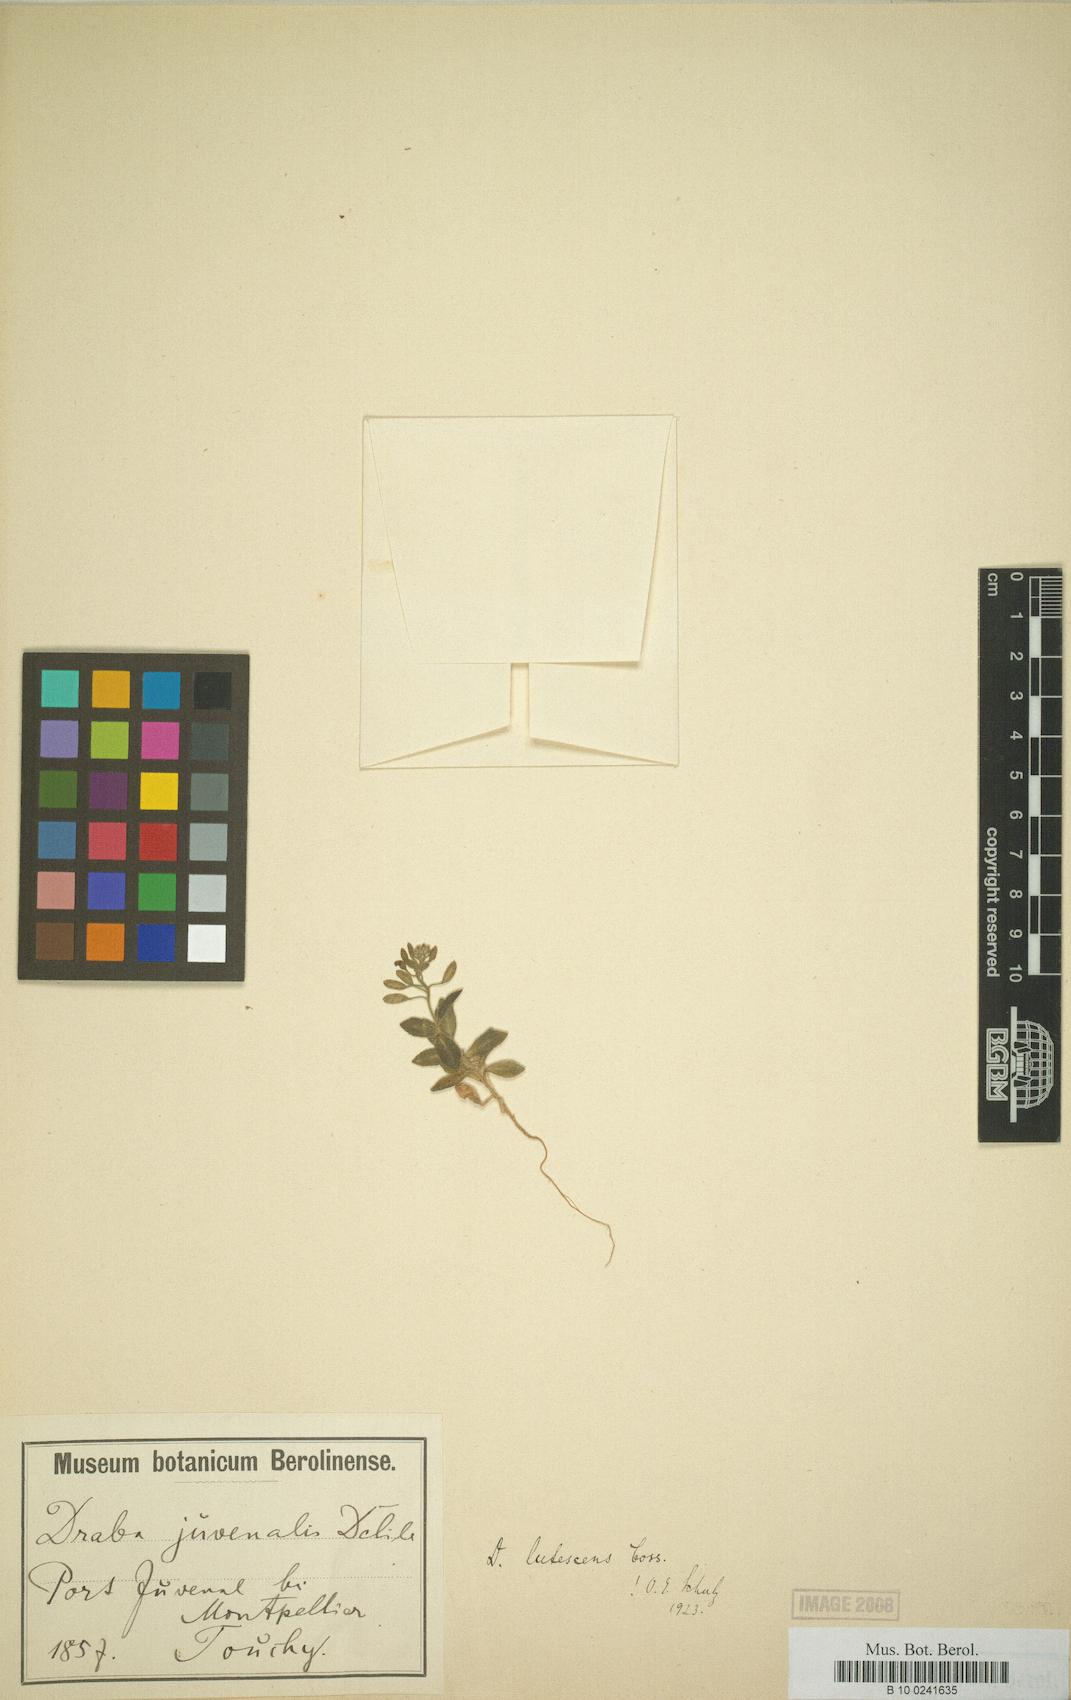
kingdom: Plantae
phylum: Tracheophyta
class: Magnoliopsida
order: Brassicales
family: Brassicaceae
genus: Draba
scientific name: Draba lutescens
